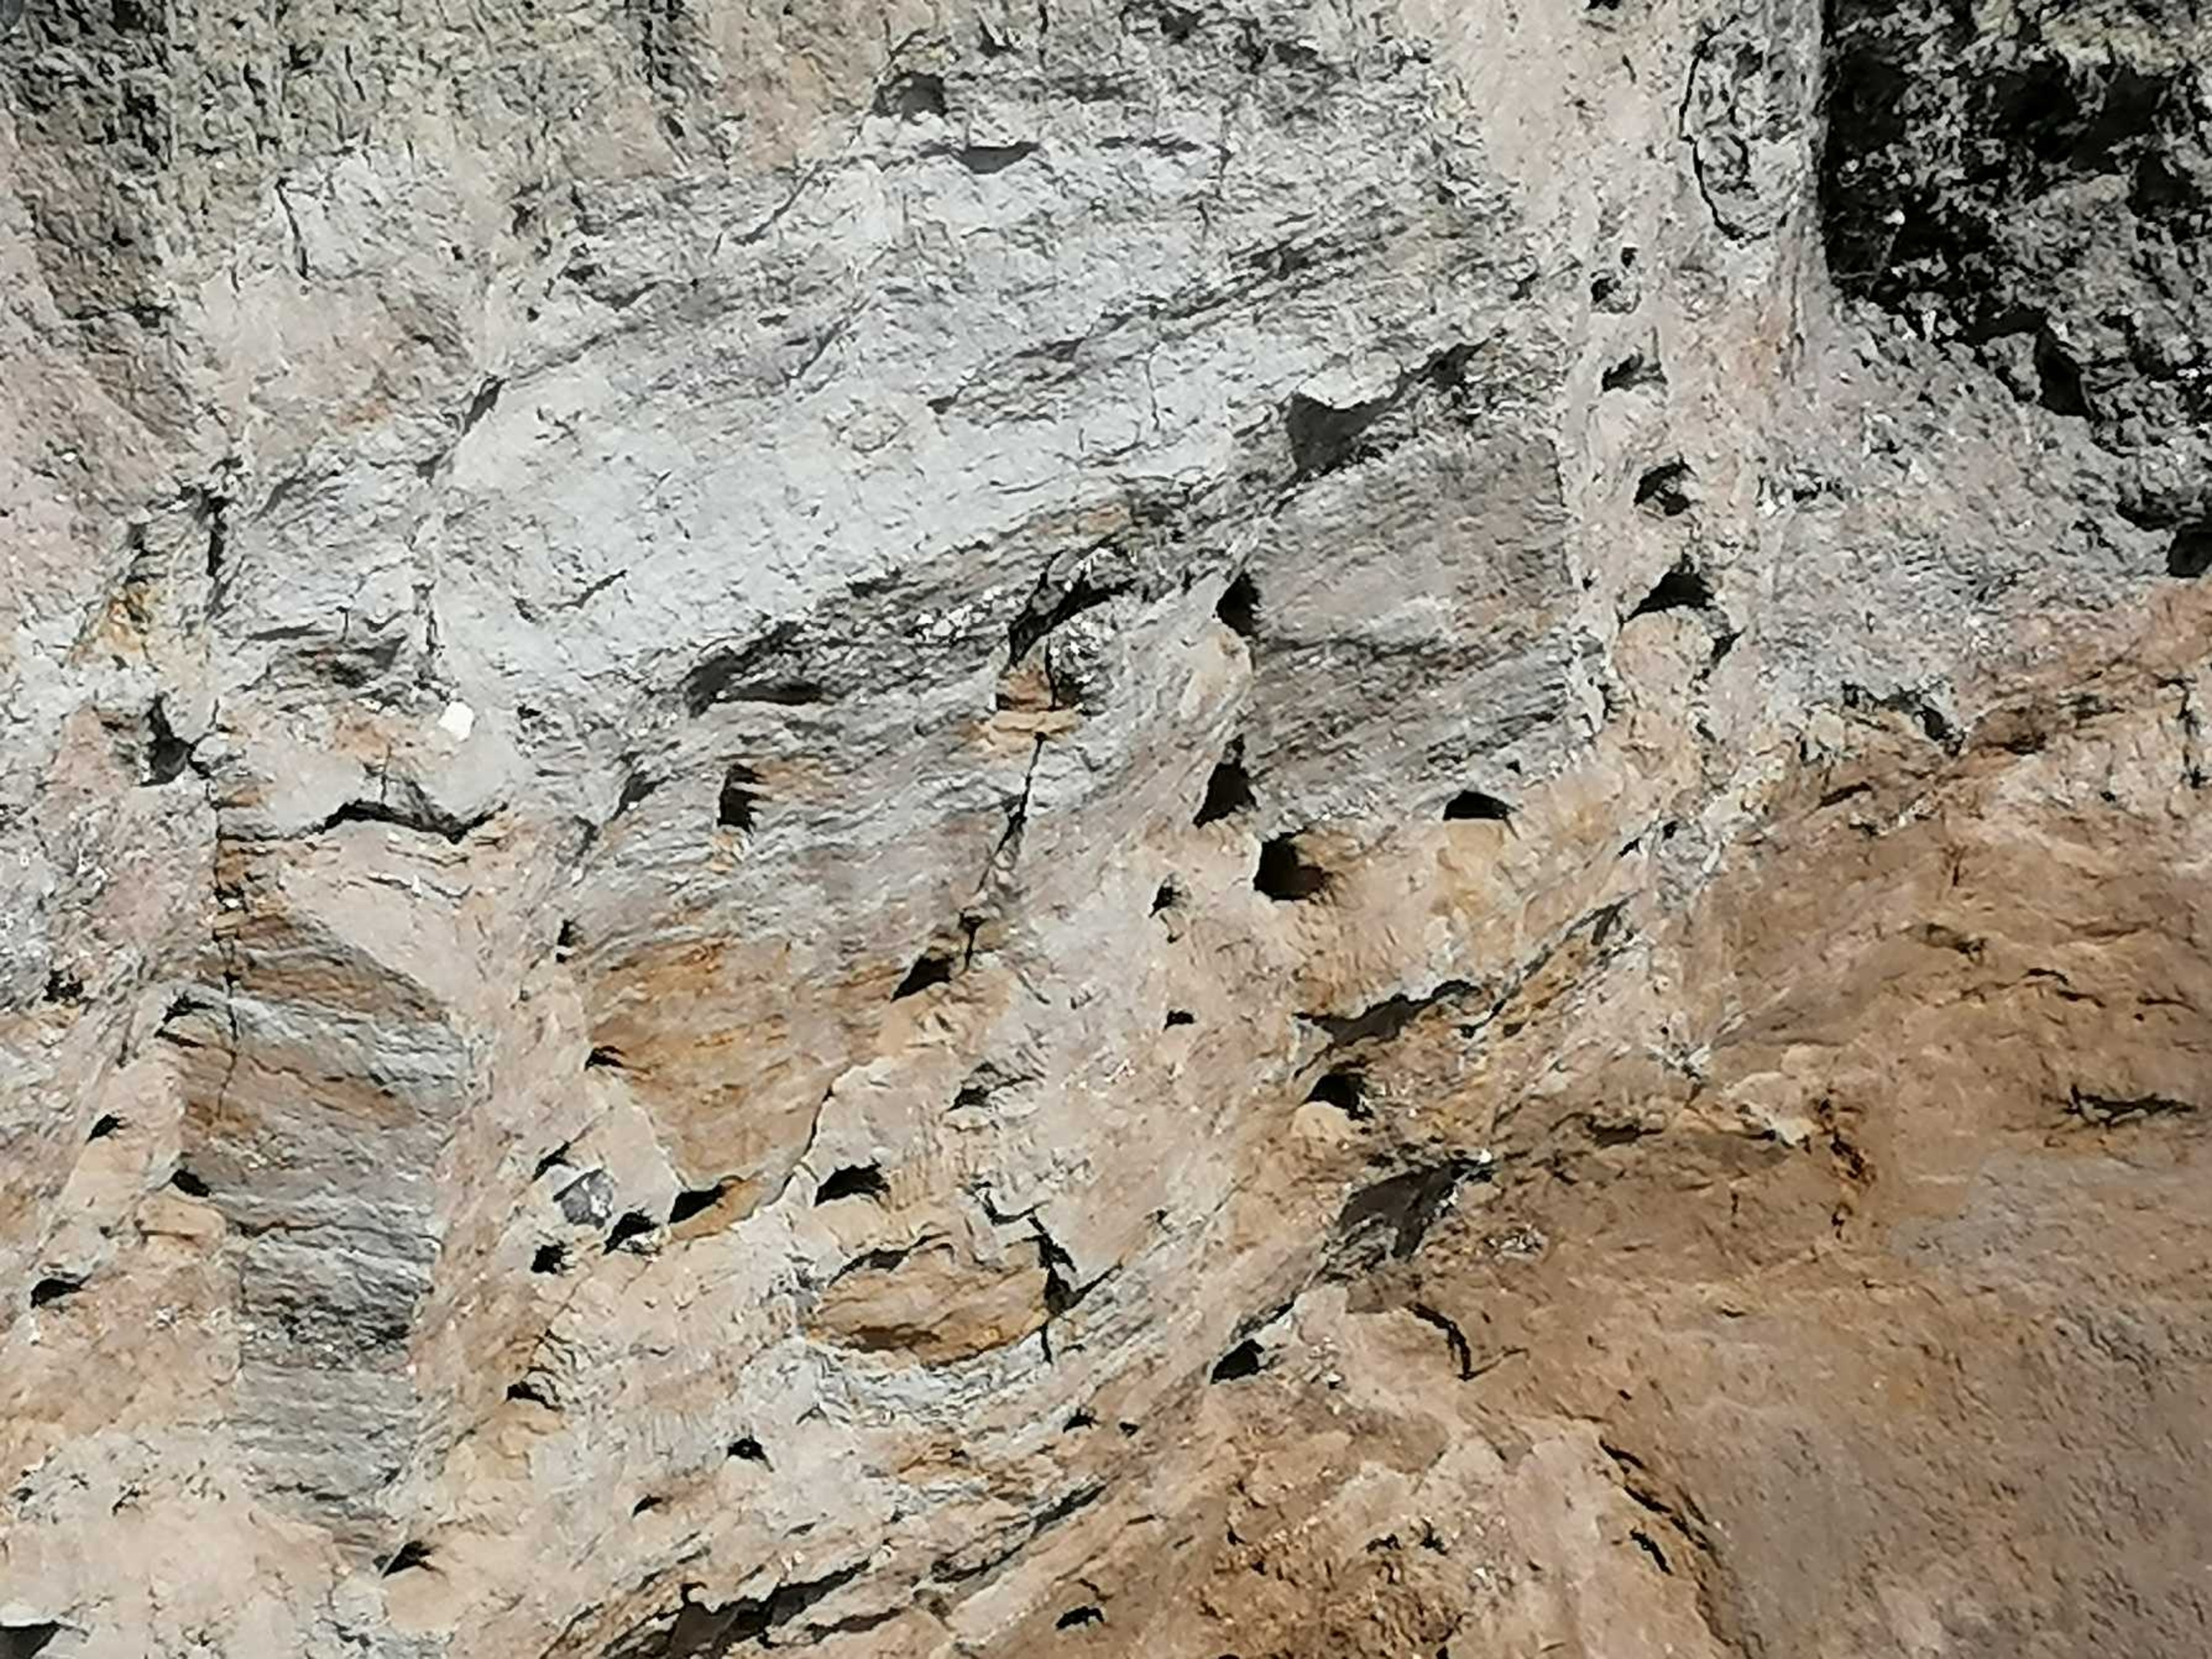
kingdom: Animalia
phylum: Chordata
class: Aves
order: Passeriformes
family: Hirundinidae
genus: Riparia
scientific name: Riparia riparia
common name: Digesvale
